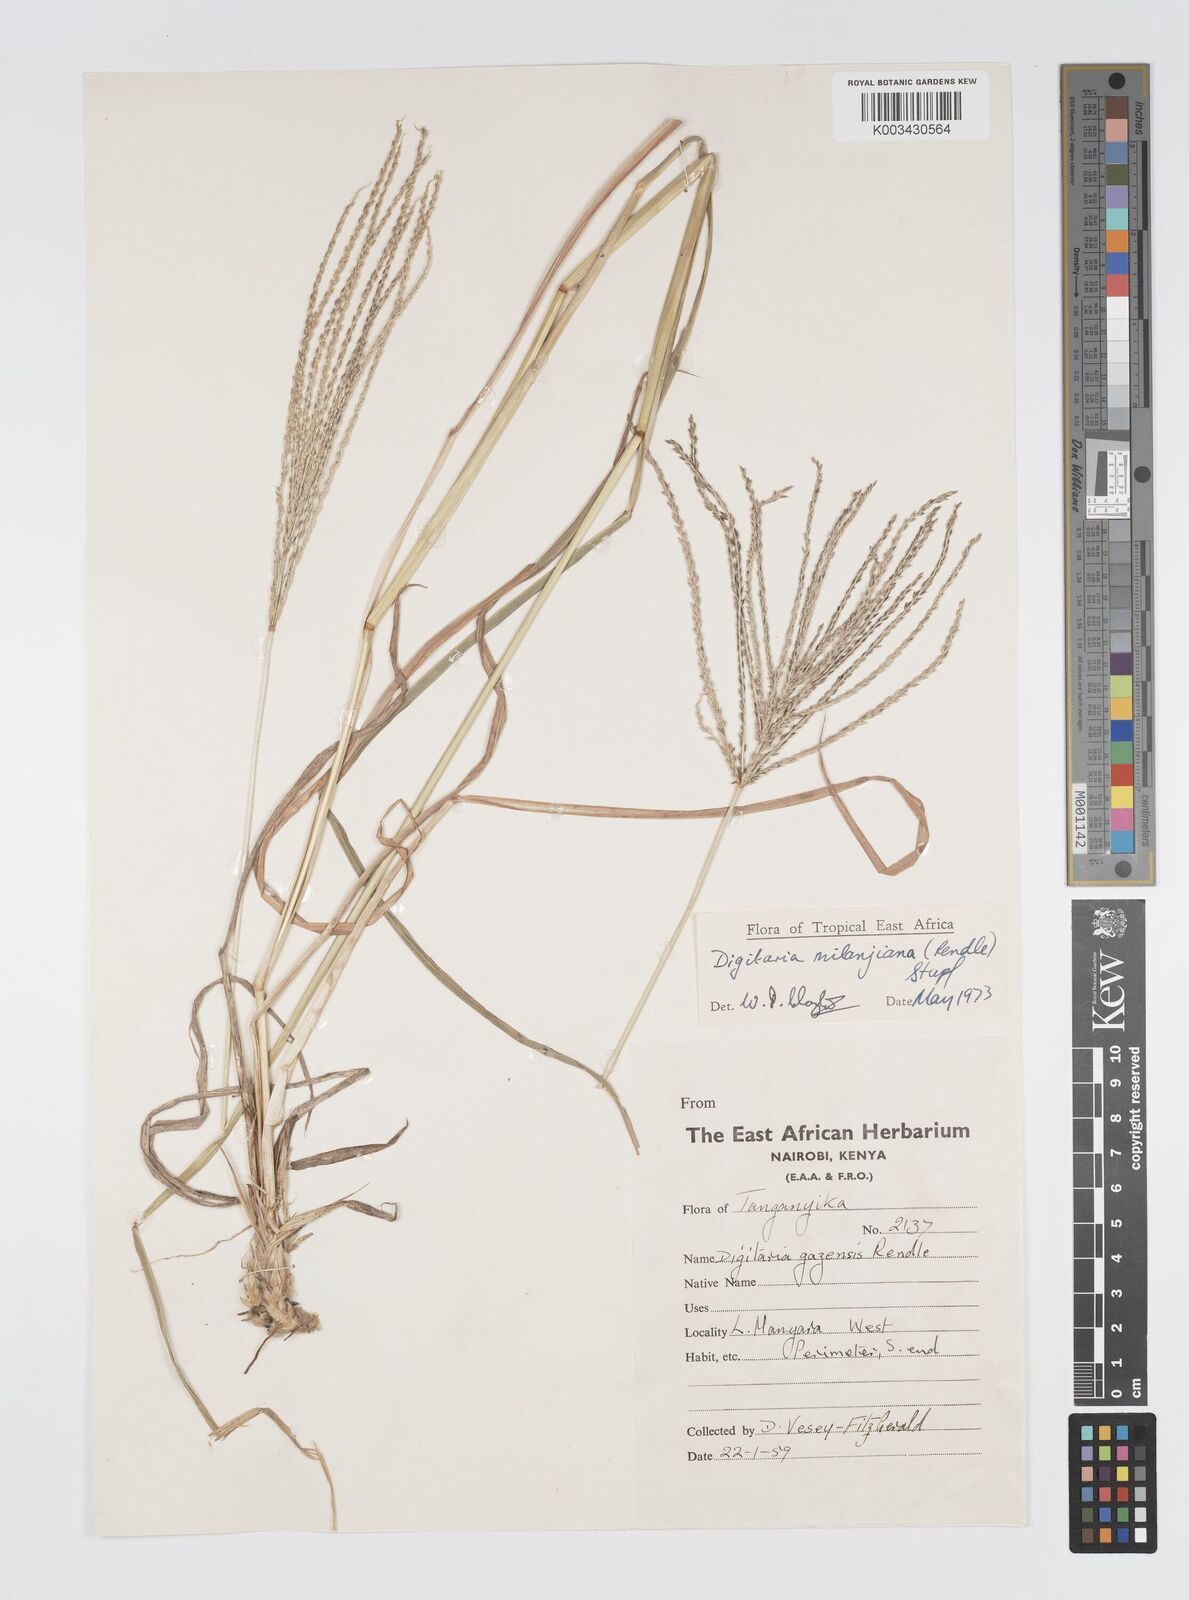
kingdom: Plantae
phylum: Tracheophyta
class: Liliopsida
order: Poales
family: Poaceae
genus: Digitaria
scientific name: Digitaria milanjiana
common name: Madagascar crabgrass
